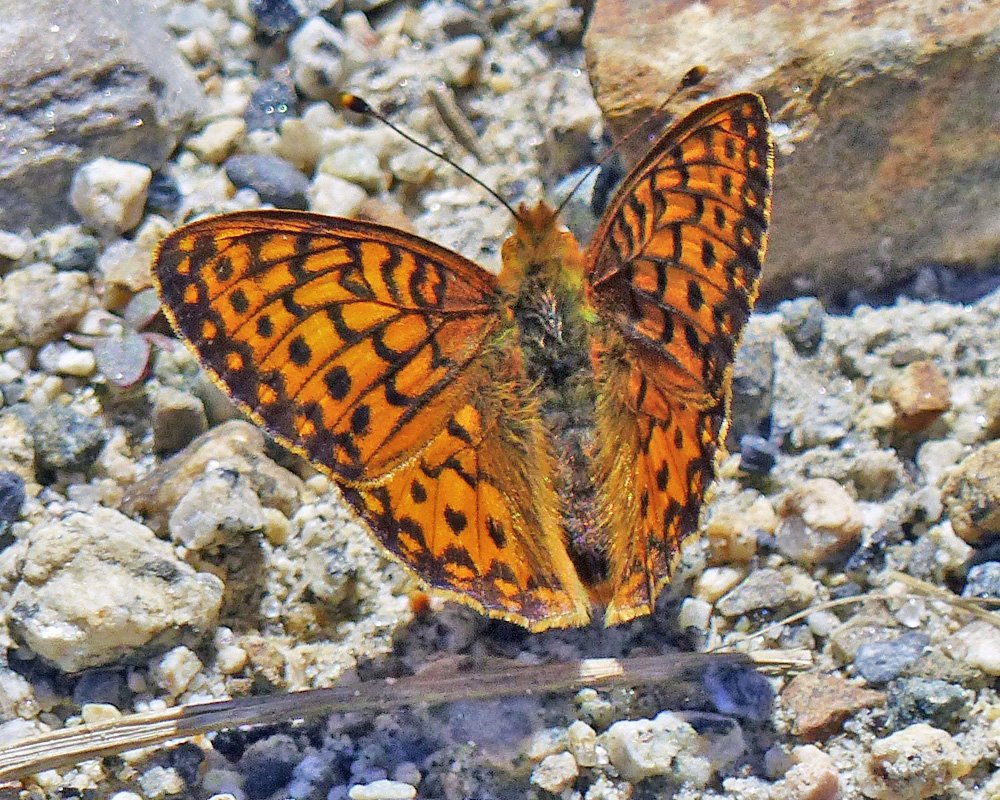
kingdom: Animalia
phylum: Arthropoda
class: Insecta
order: Lepidoptera
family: Nymphalidae
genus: Speyeria
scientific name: Speyeria atlantis
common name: Northwestern Fritillary
